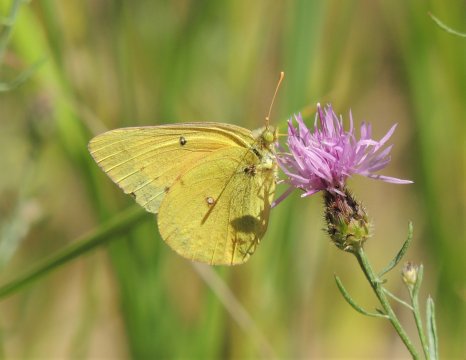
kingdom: Animalia
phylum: Arthropoda
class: Insecta
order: Lepidoptera
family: Pieridae
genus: Colias
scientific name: Colias eurytheme
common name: Orange Sulphur
